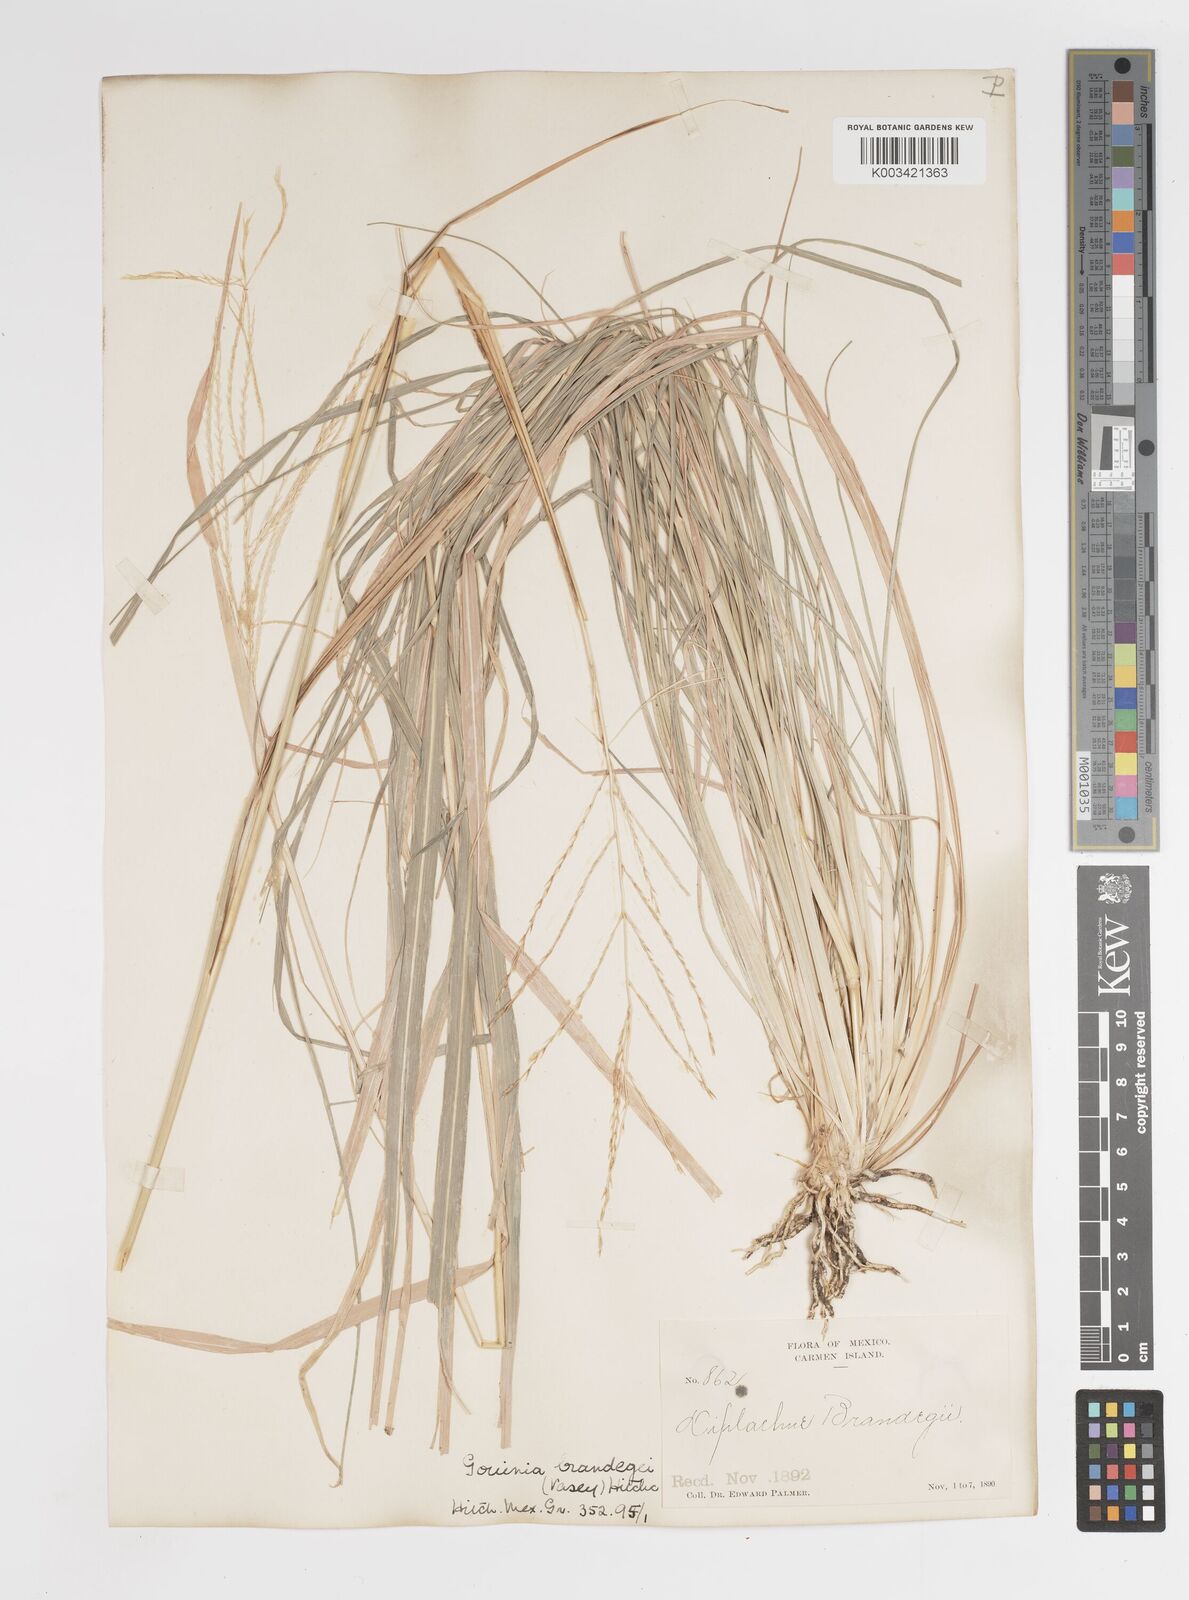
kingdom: Plantae
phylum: Tracheophyta
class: Liliopsida
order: Poales
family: Poaceae
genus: Tetrapogon
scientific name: Tetrapogon brandegeei
